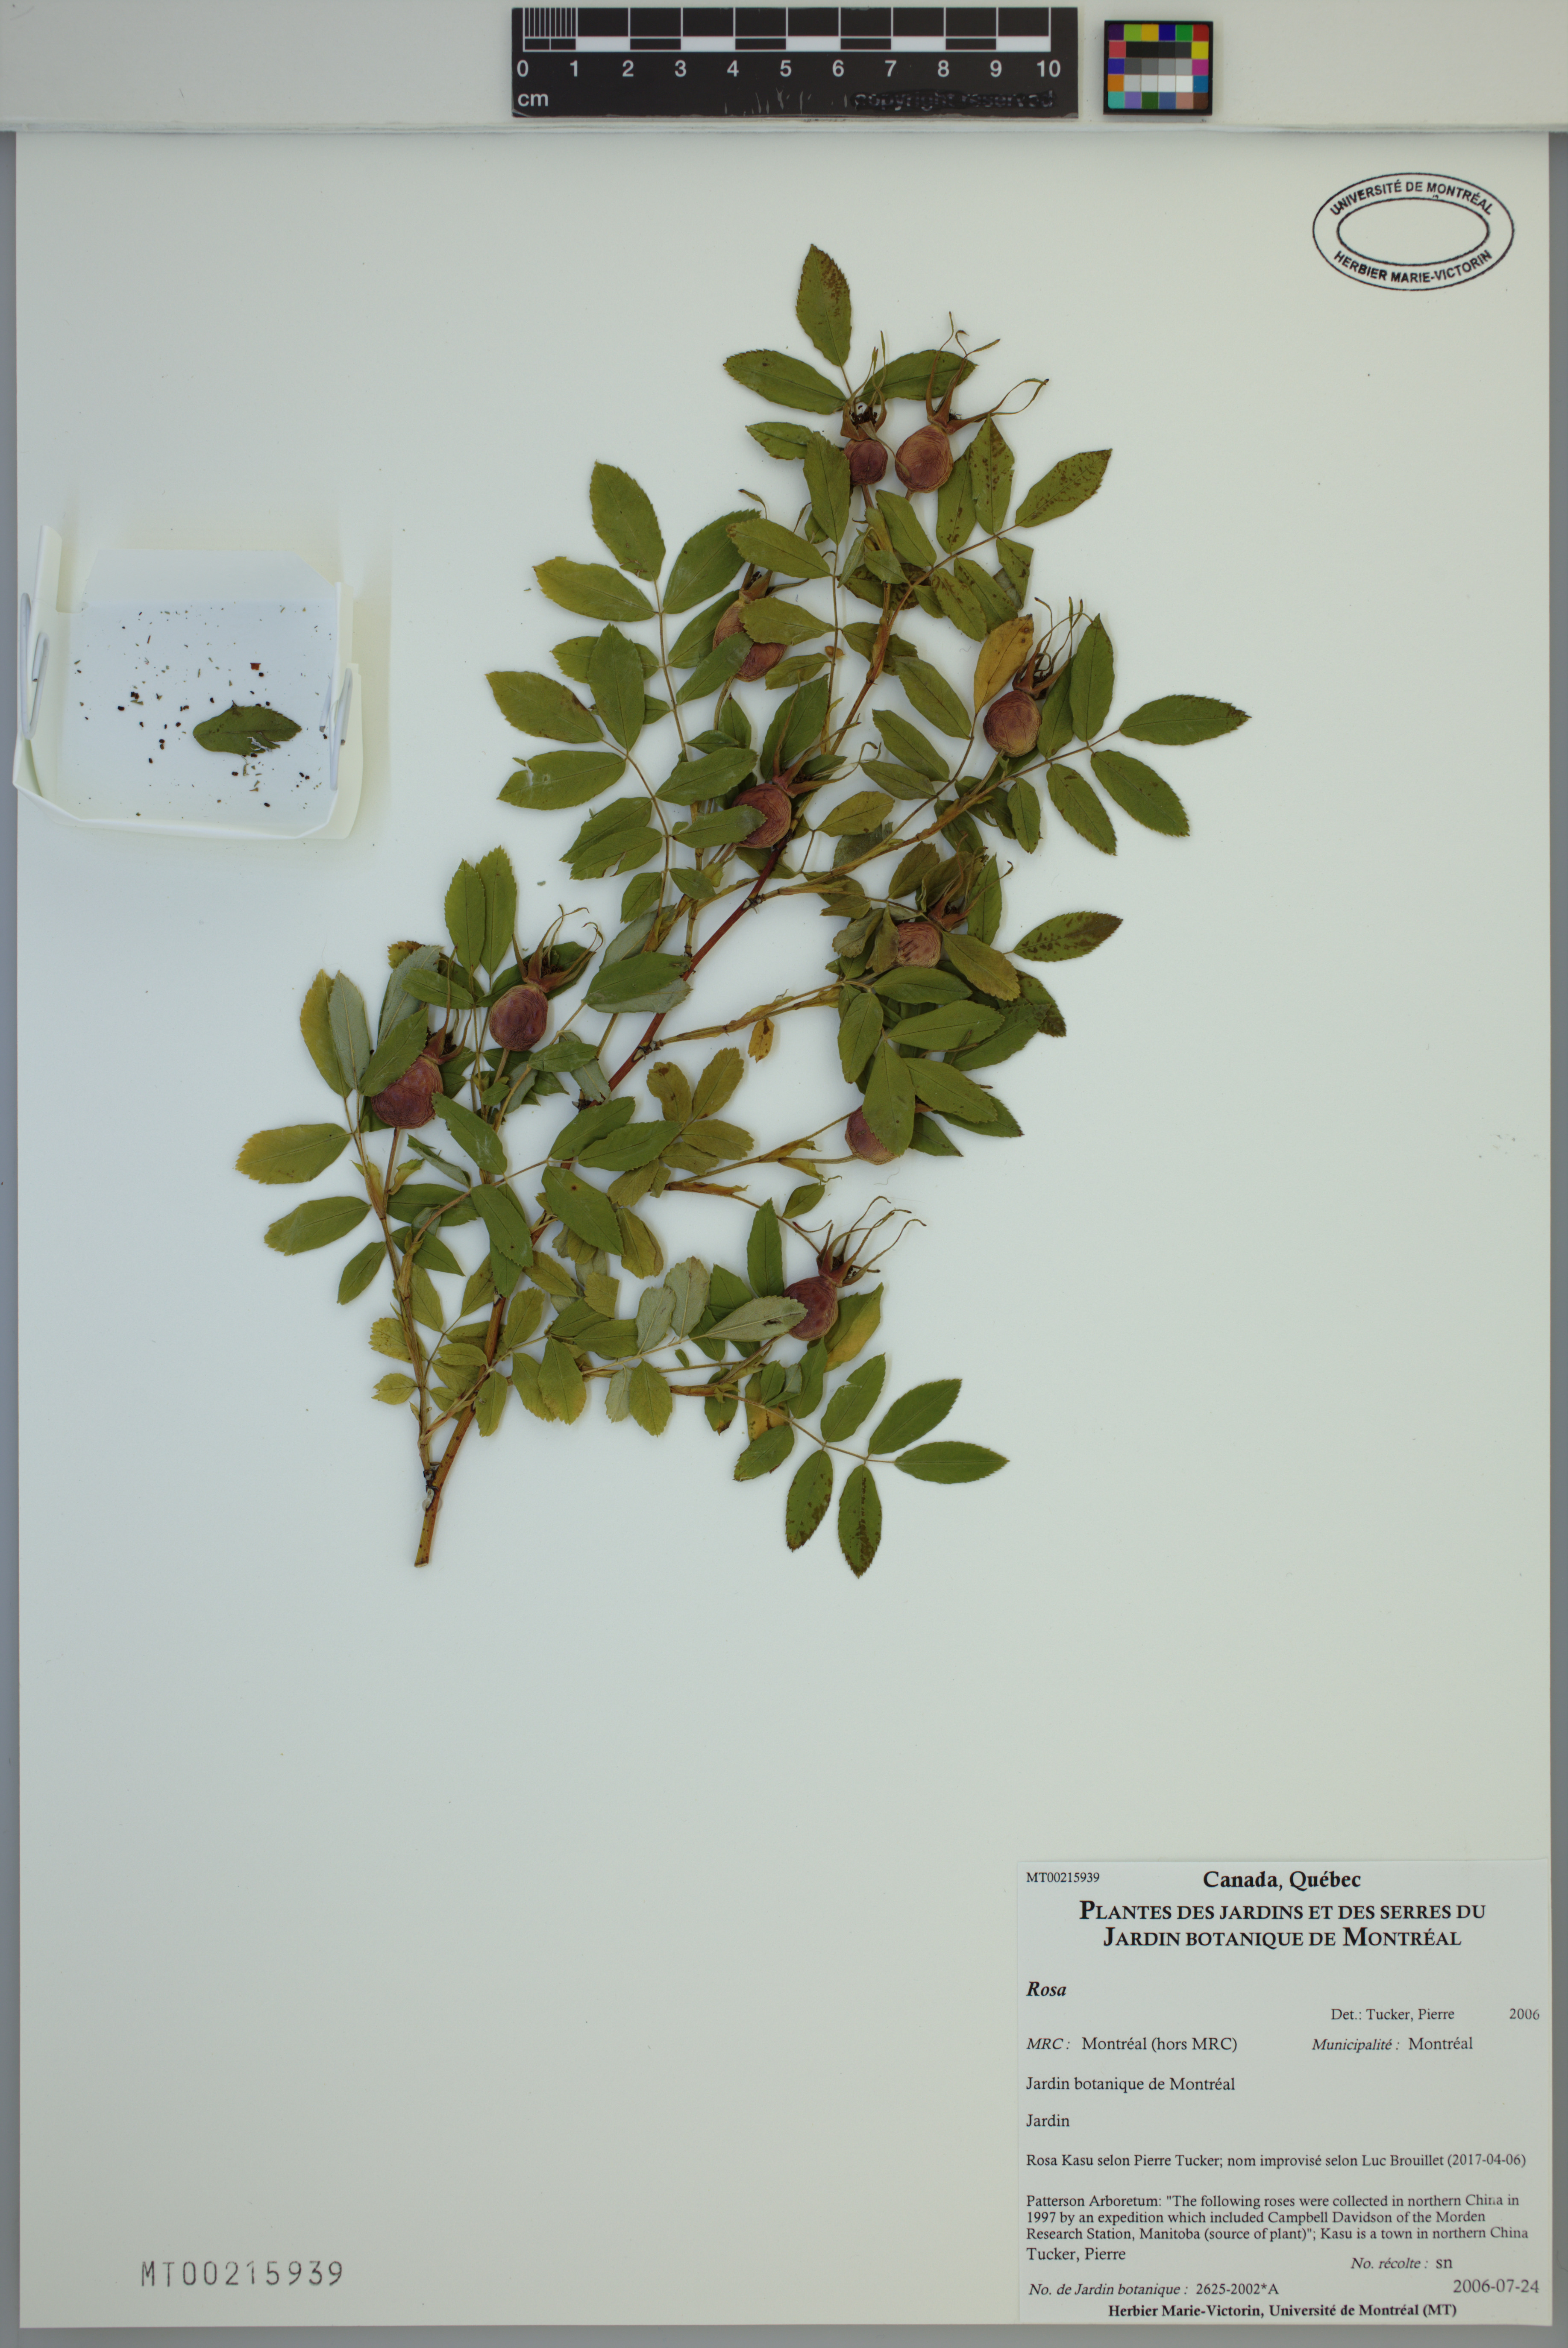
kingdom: Plantae
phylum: Tracheophyta
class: Magnoliopsida
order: Rosales
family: Rosaceae
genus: Rosa
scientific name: Rosa
